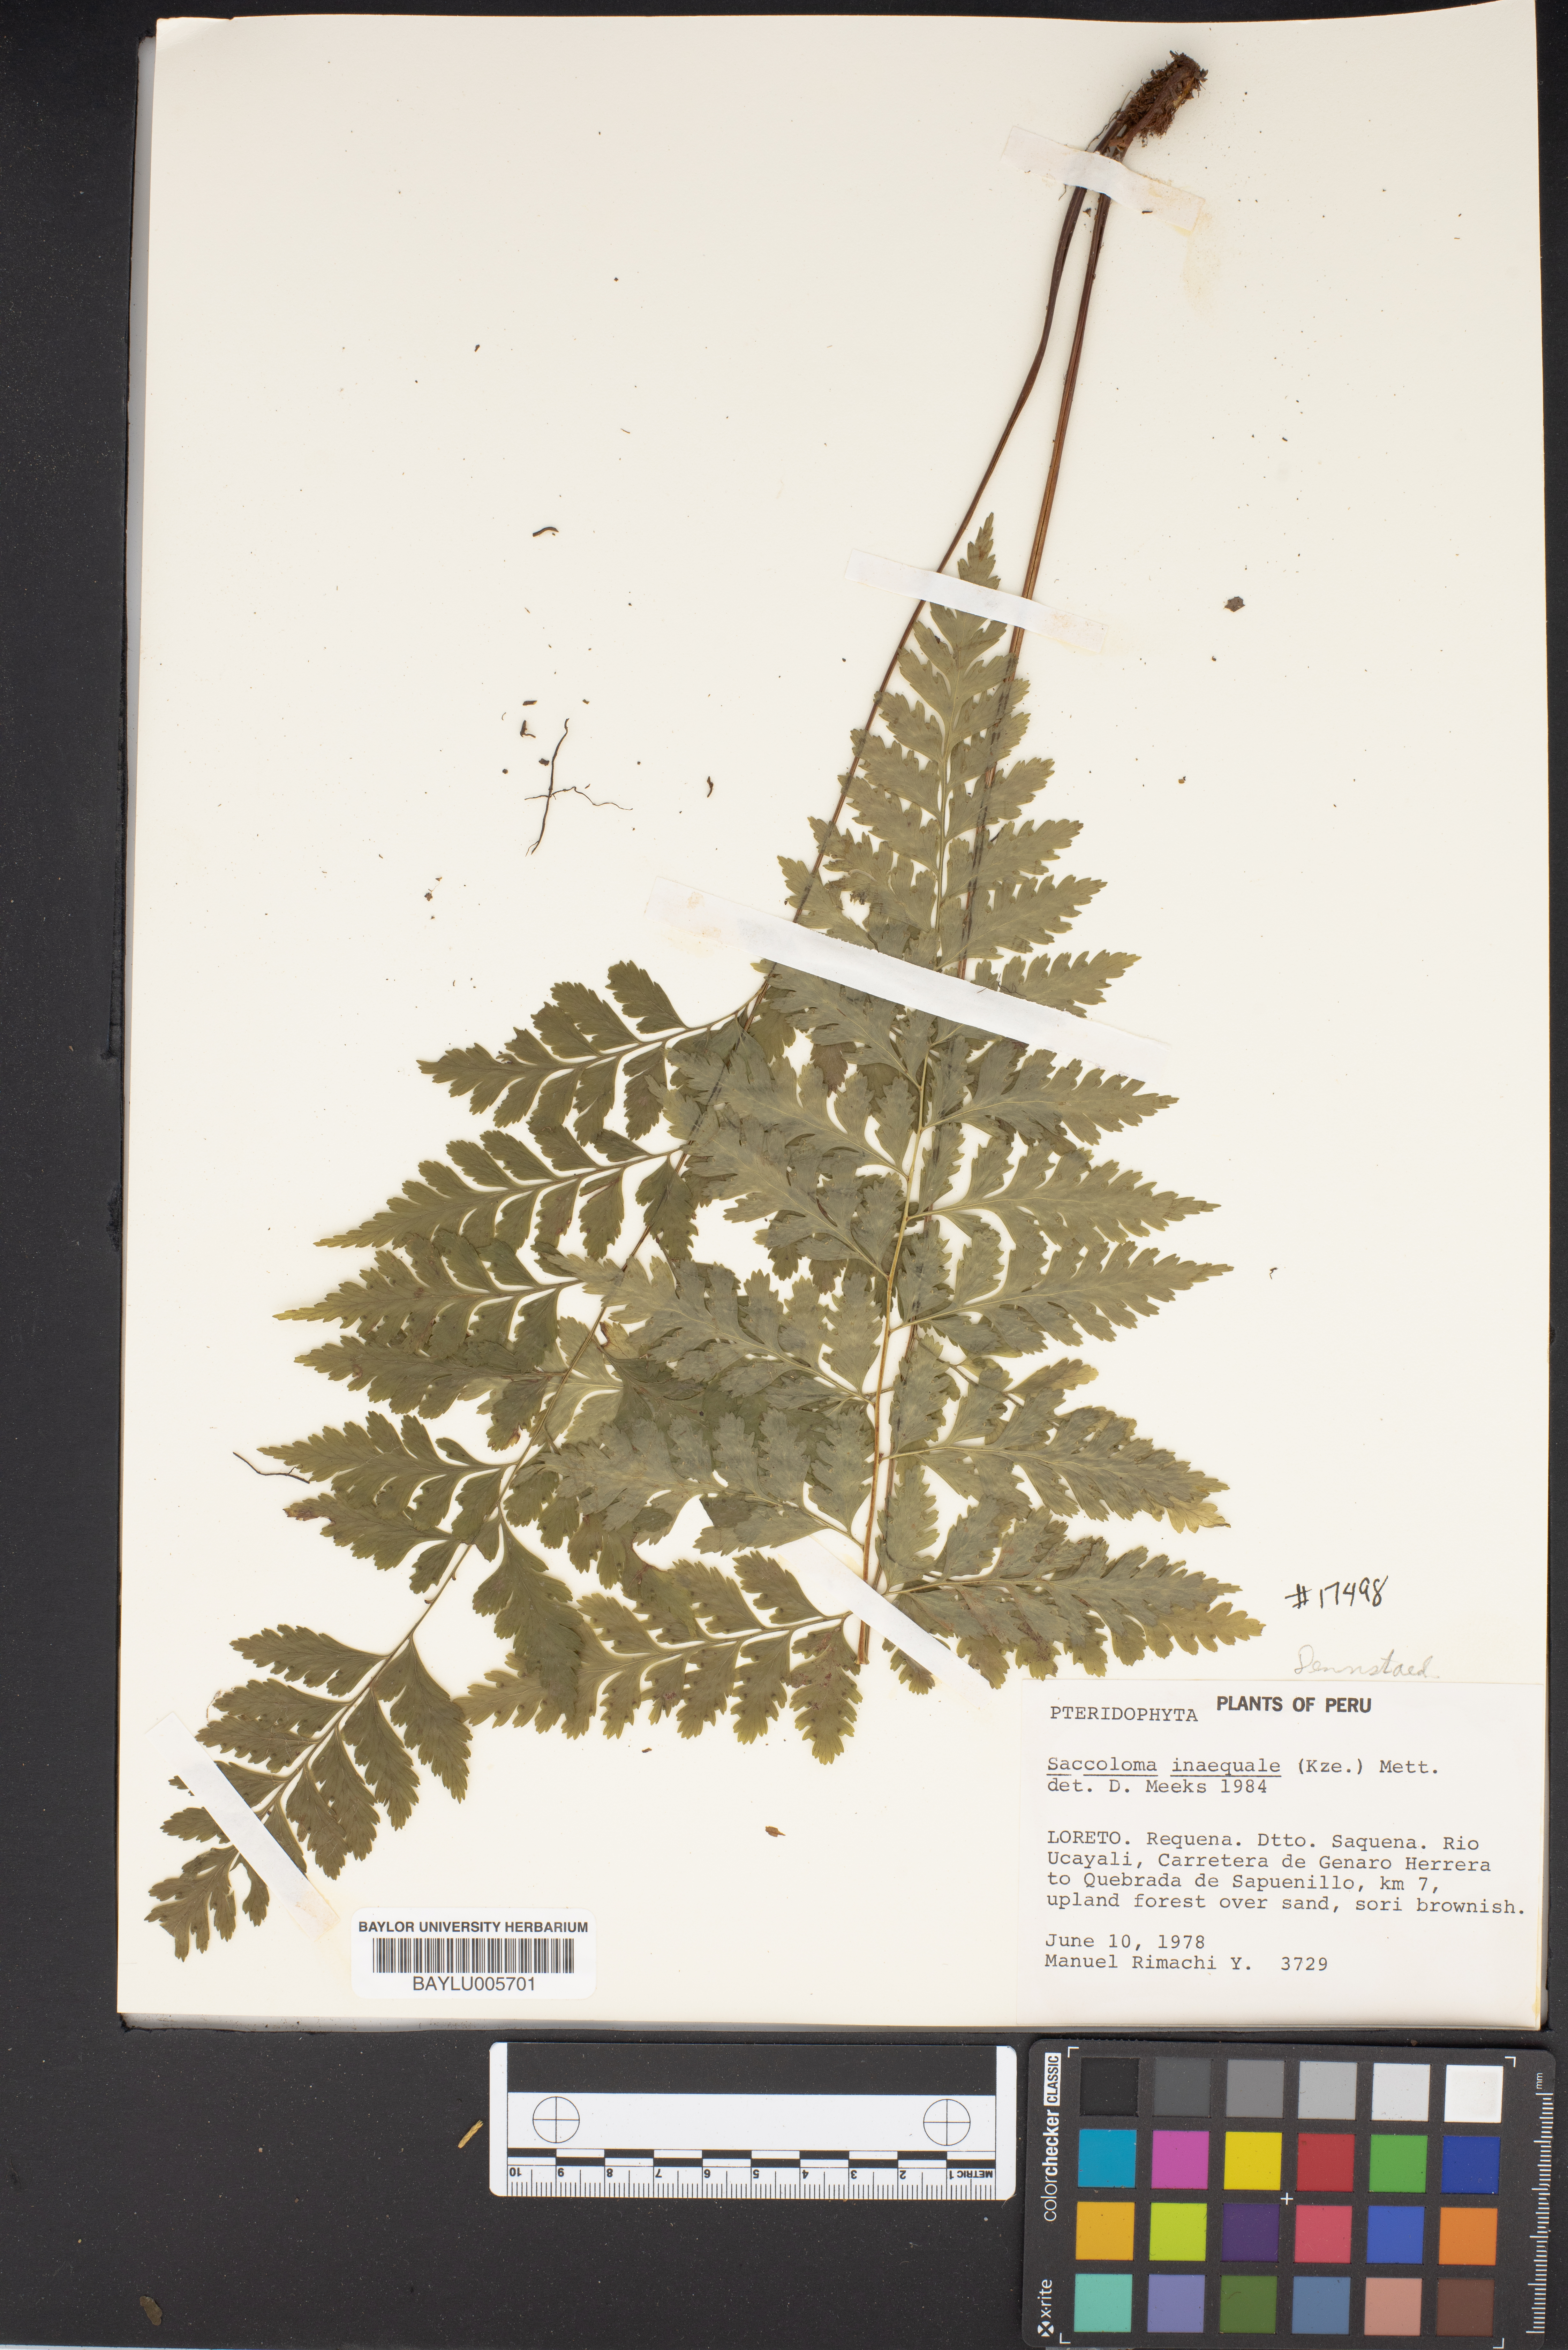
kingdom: Plantae
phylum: Tracheophyta
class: Polypodiopsida
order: Polypodiales
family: Saccolomataceae
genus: Saccoloma
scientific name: Saccoloma inaequale
